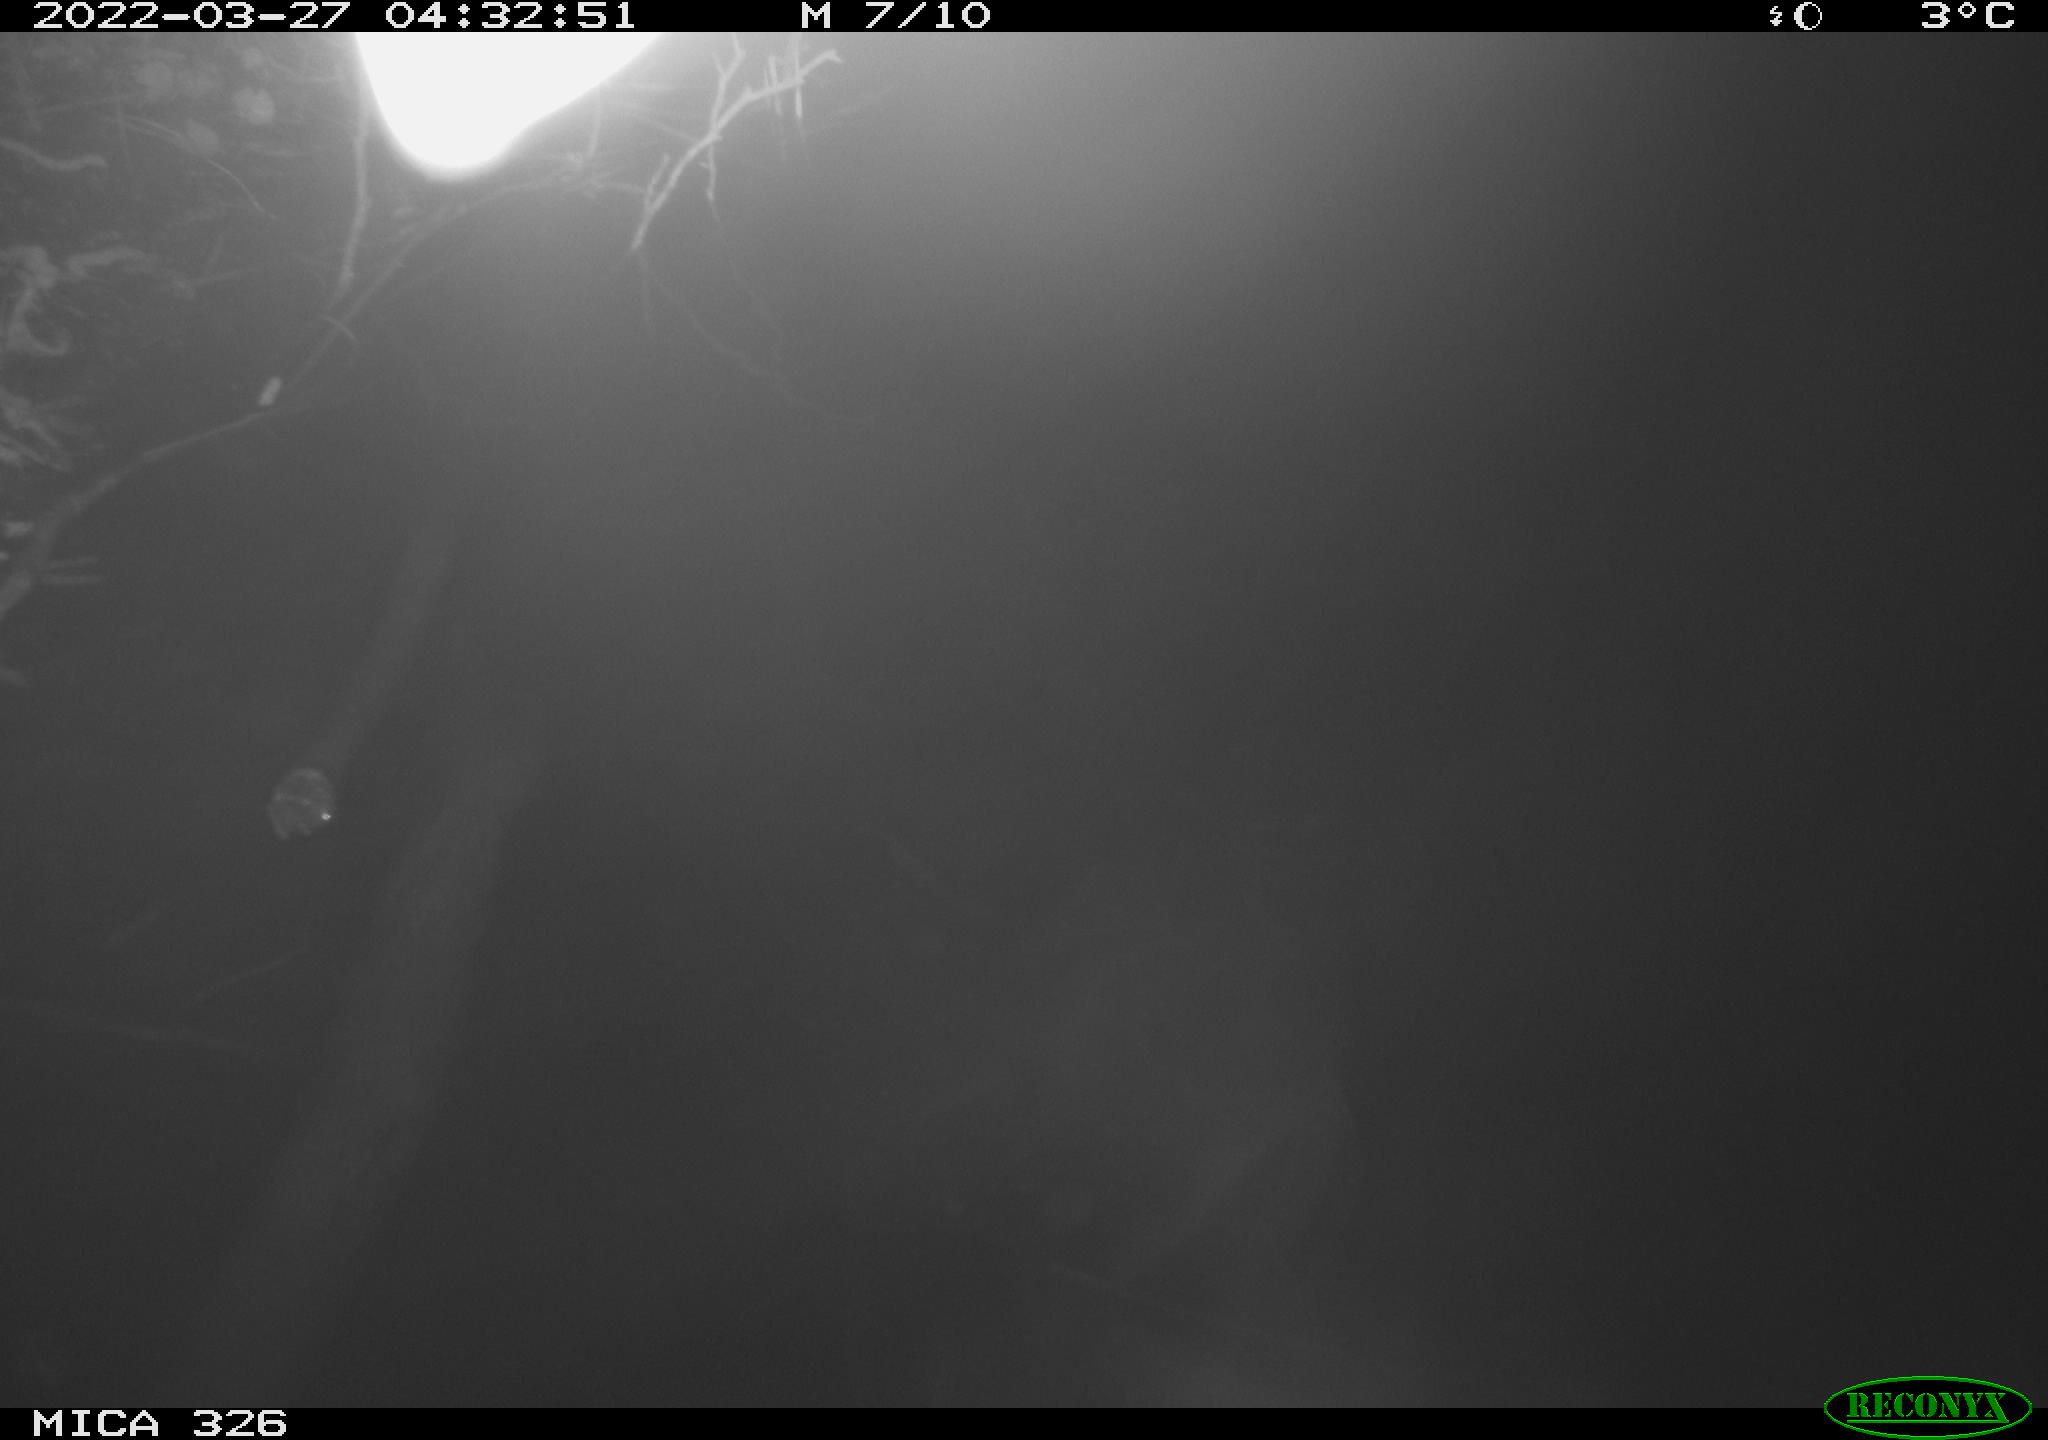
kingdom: Animalia
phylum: Chordata
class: Mammalia
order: Rodentia
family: Muridae
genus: Rattus
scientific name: Rattus norvegicus
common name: Brown rat
